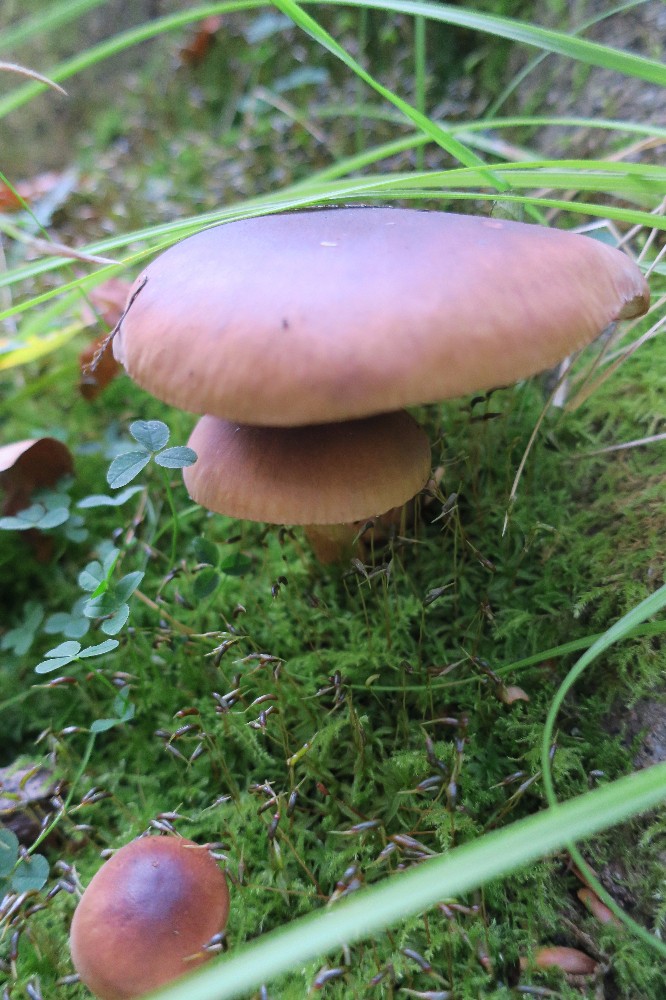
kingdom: Fungi
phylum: Basidiomycota
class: Agaricomycetes
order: Agaricales
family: Tricholomataceae
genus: Tricholoma
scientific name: Tricholoma ustale
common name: sveden ridderhat
